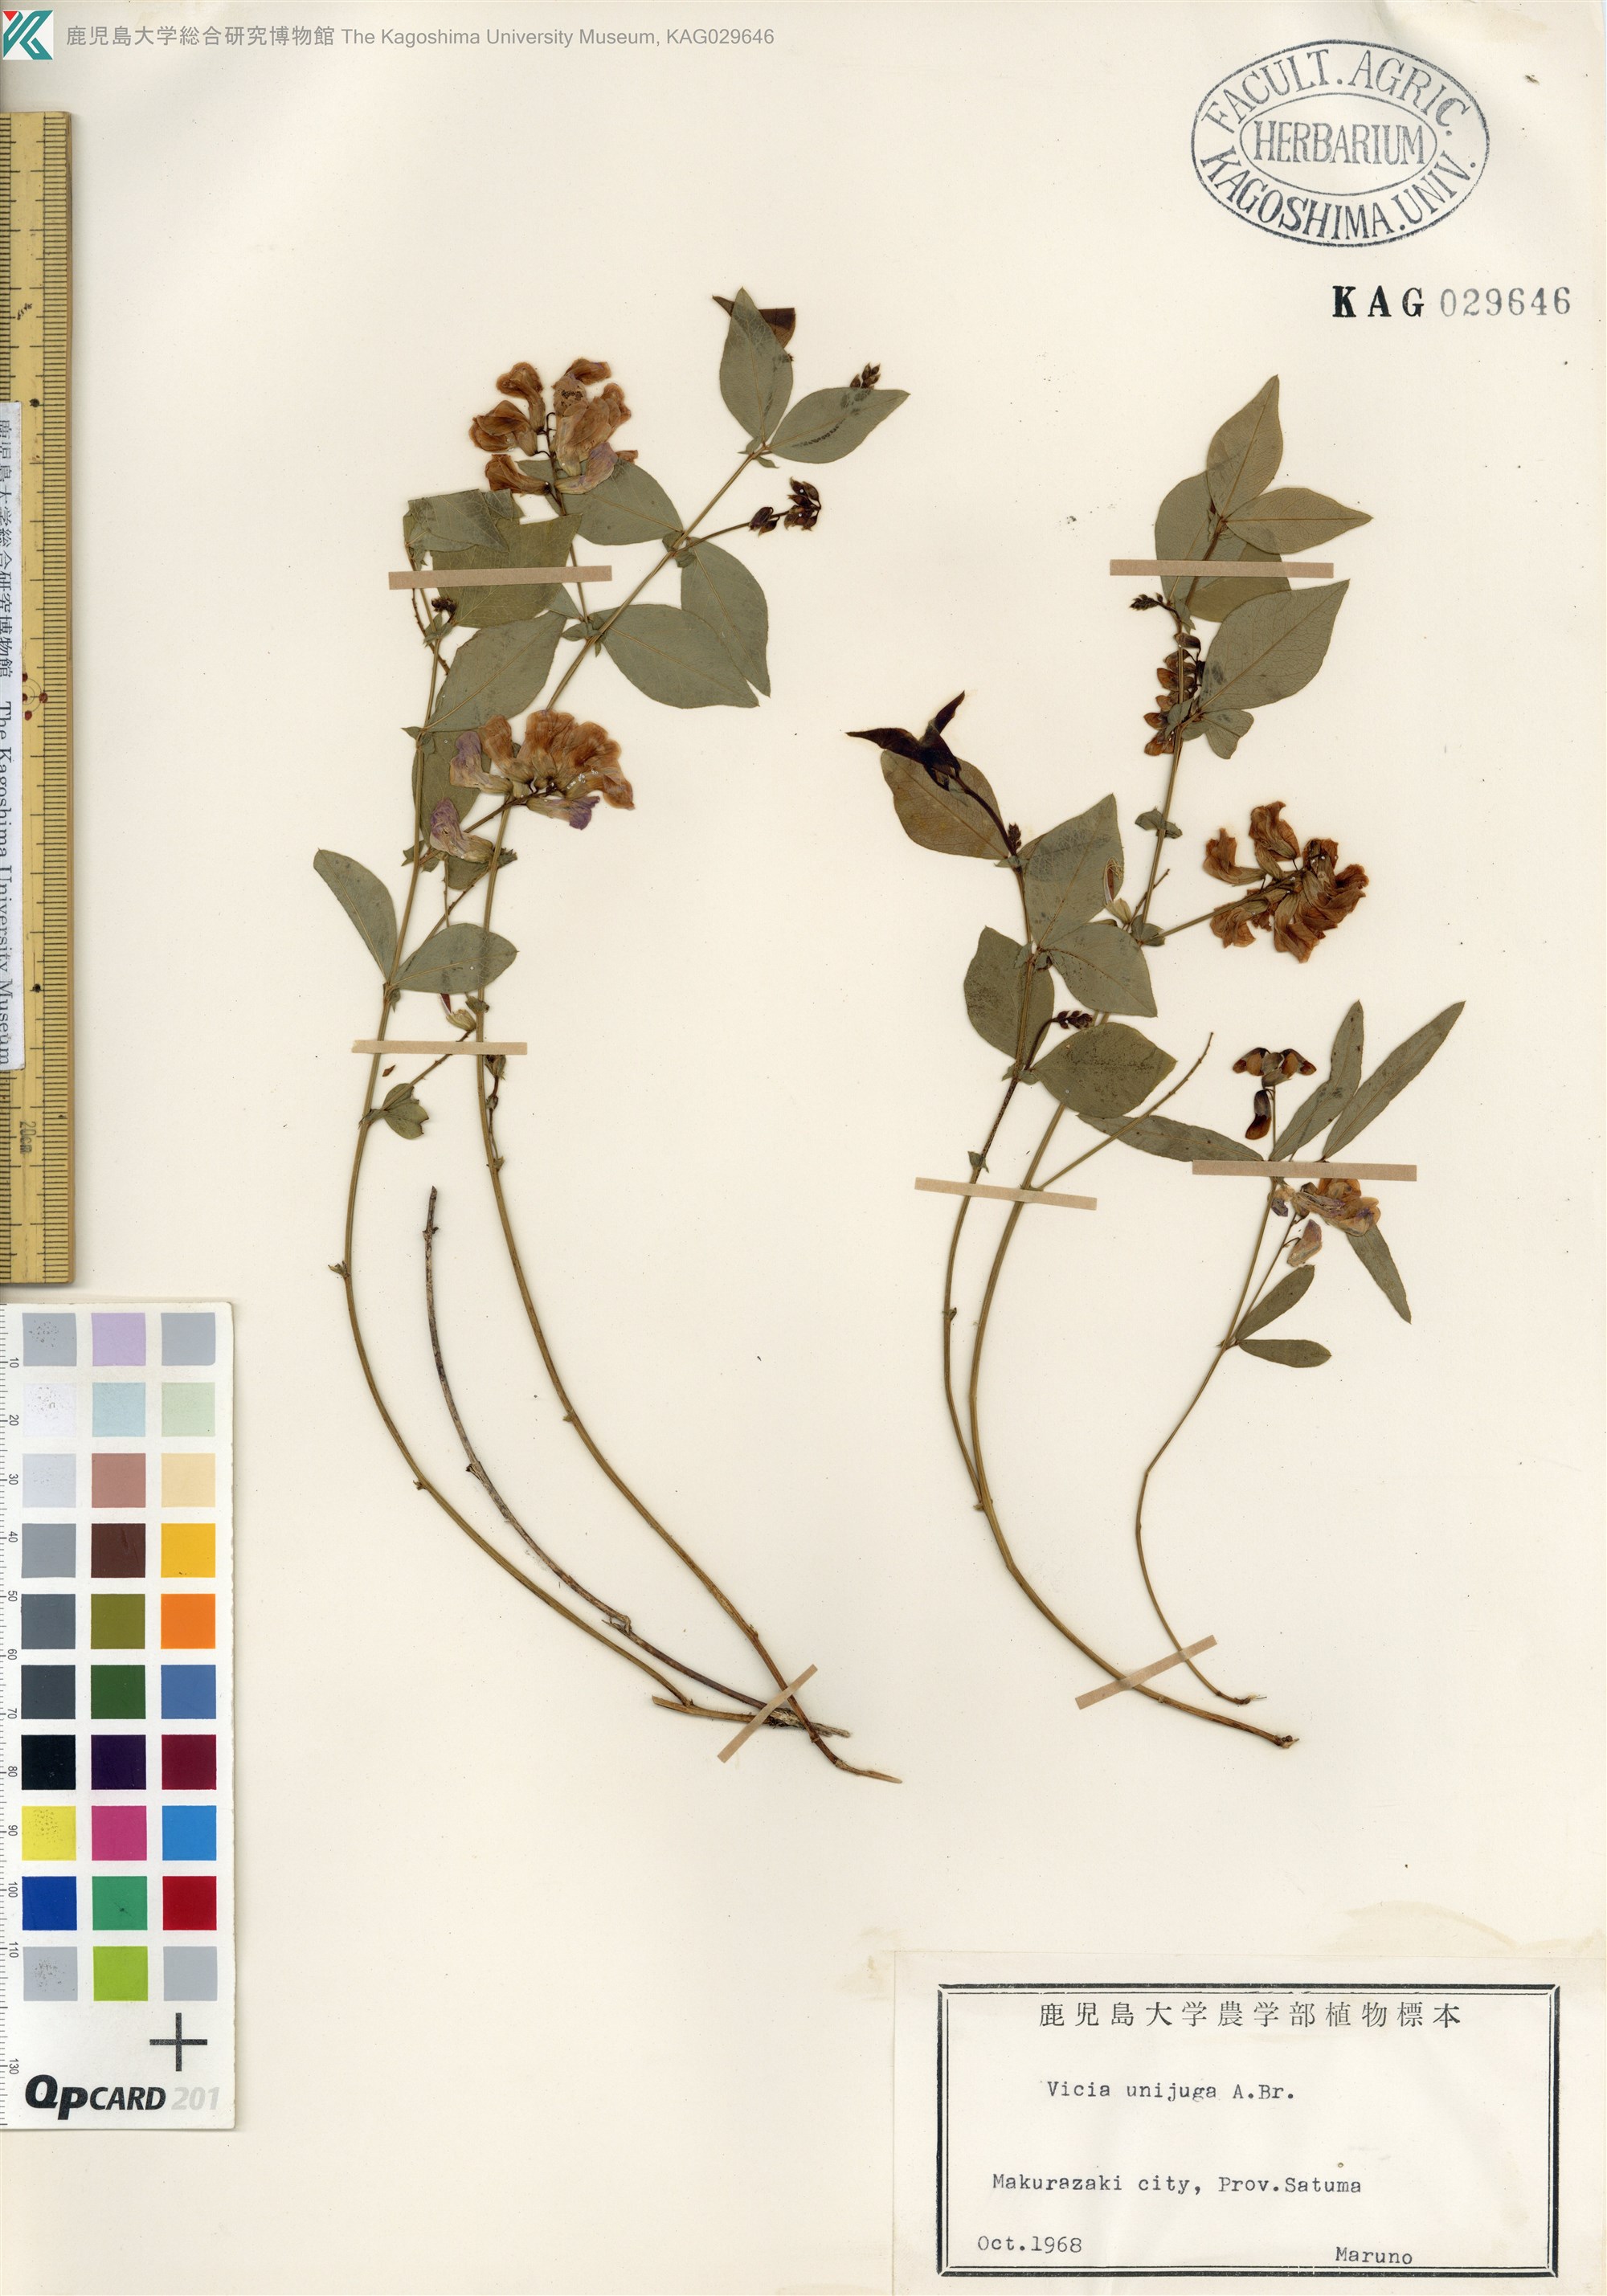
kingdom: Plantae
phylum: Tracheophyta
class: Magnoliopsida
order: Fabales
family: Fabaceae
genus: Vicia
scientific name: Vicia unijuga
